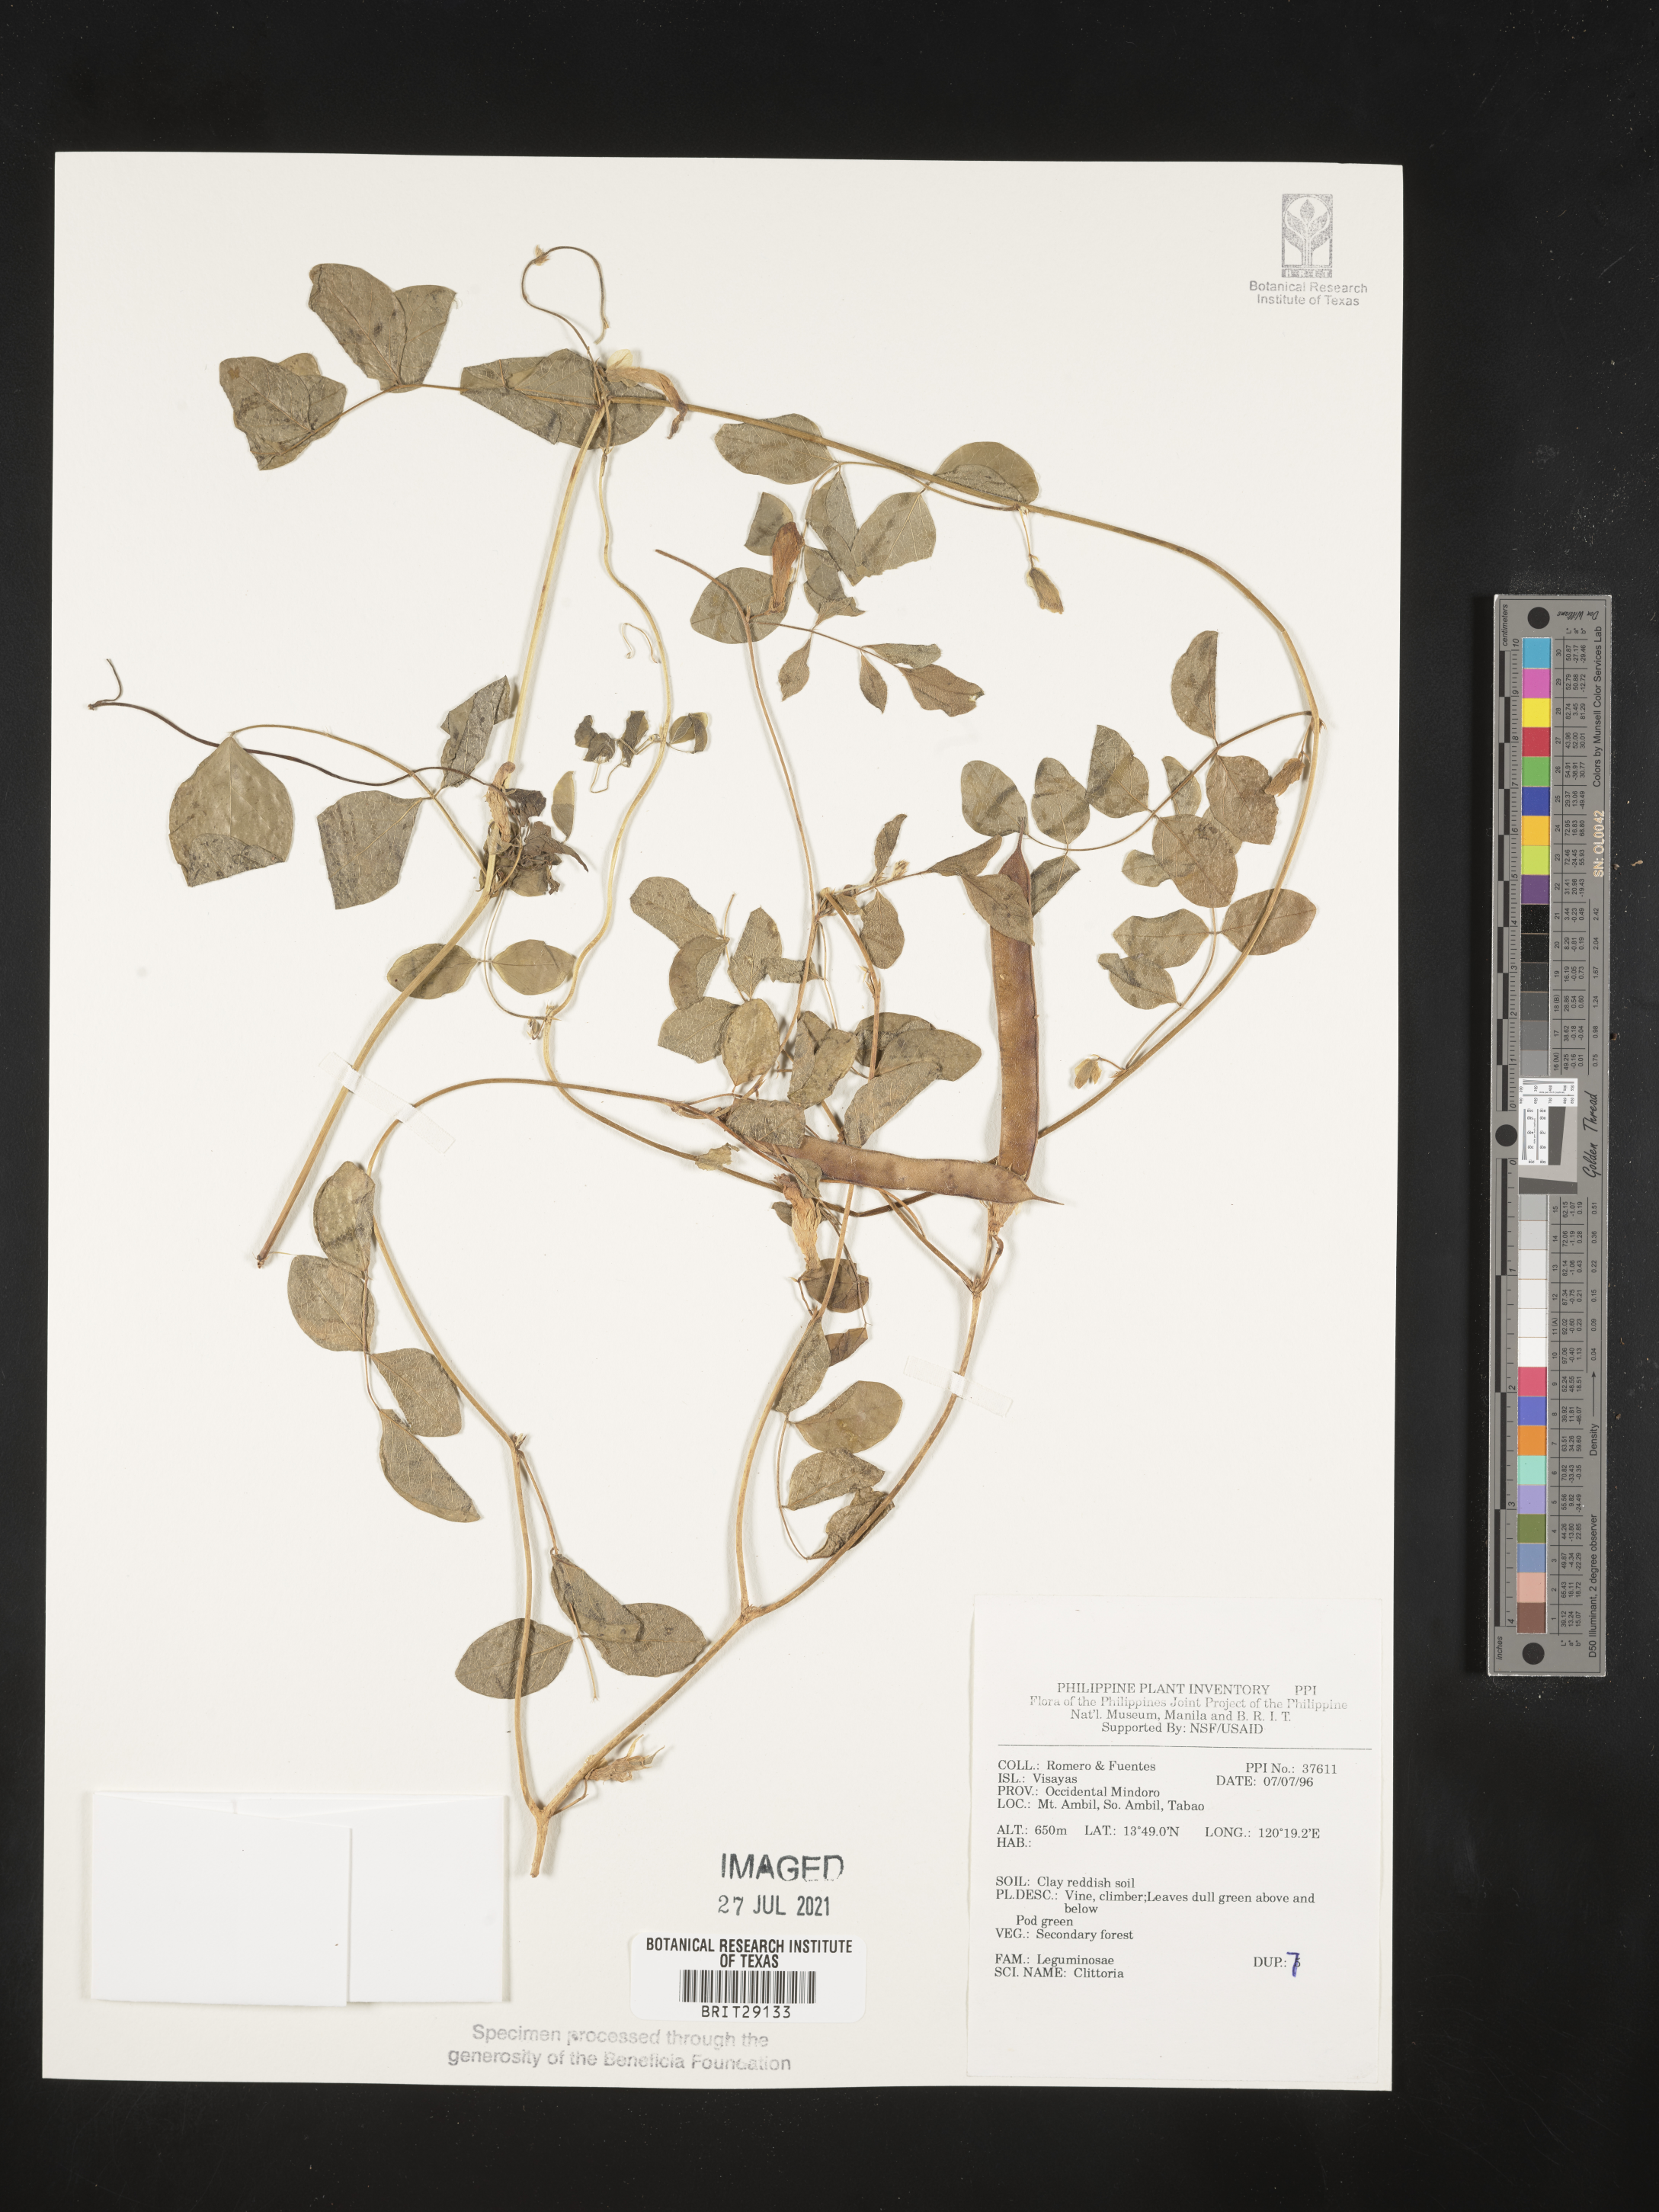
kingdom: Plantae
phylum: Tracheophyta
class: Magnoliopsida
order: Fabales
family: Fabaceae
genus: Clitoria
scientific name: Clitoria
